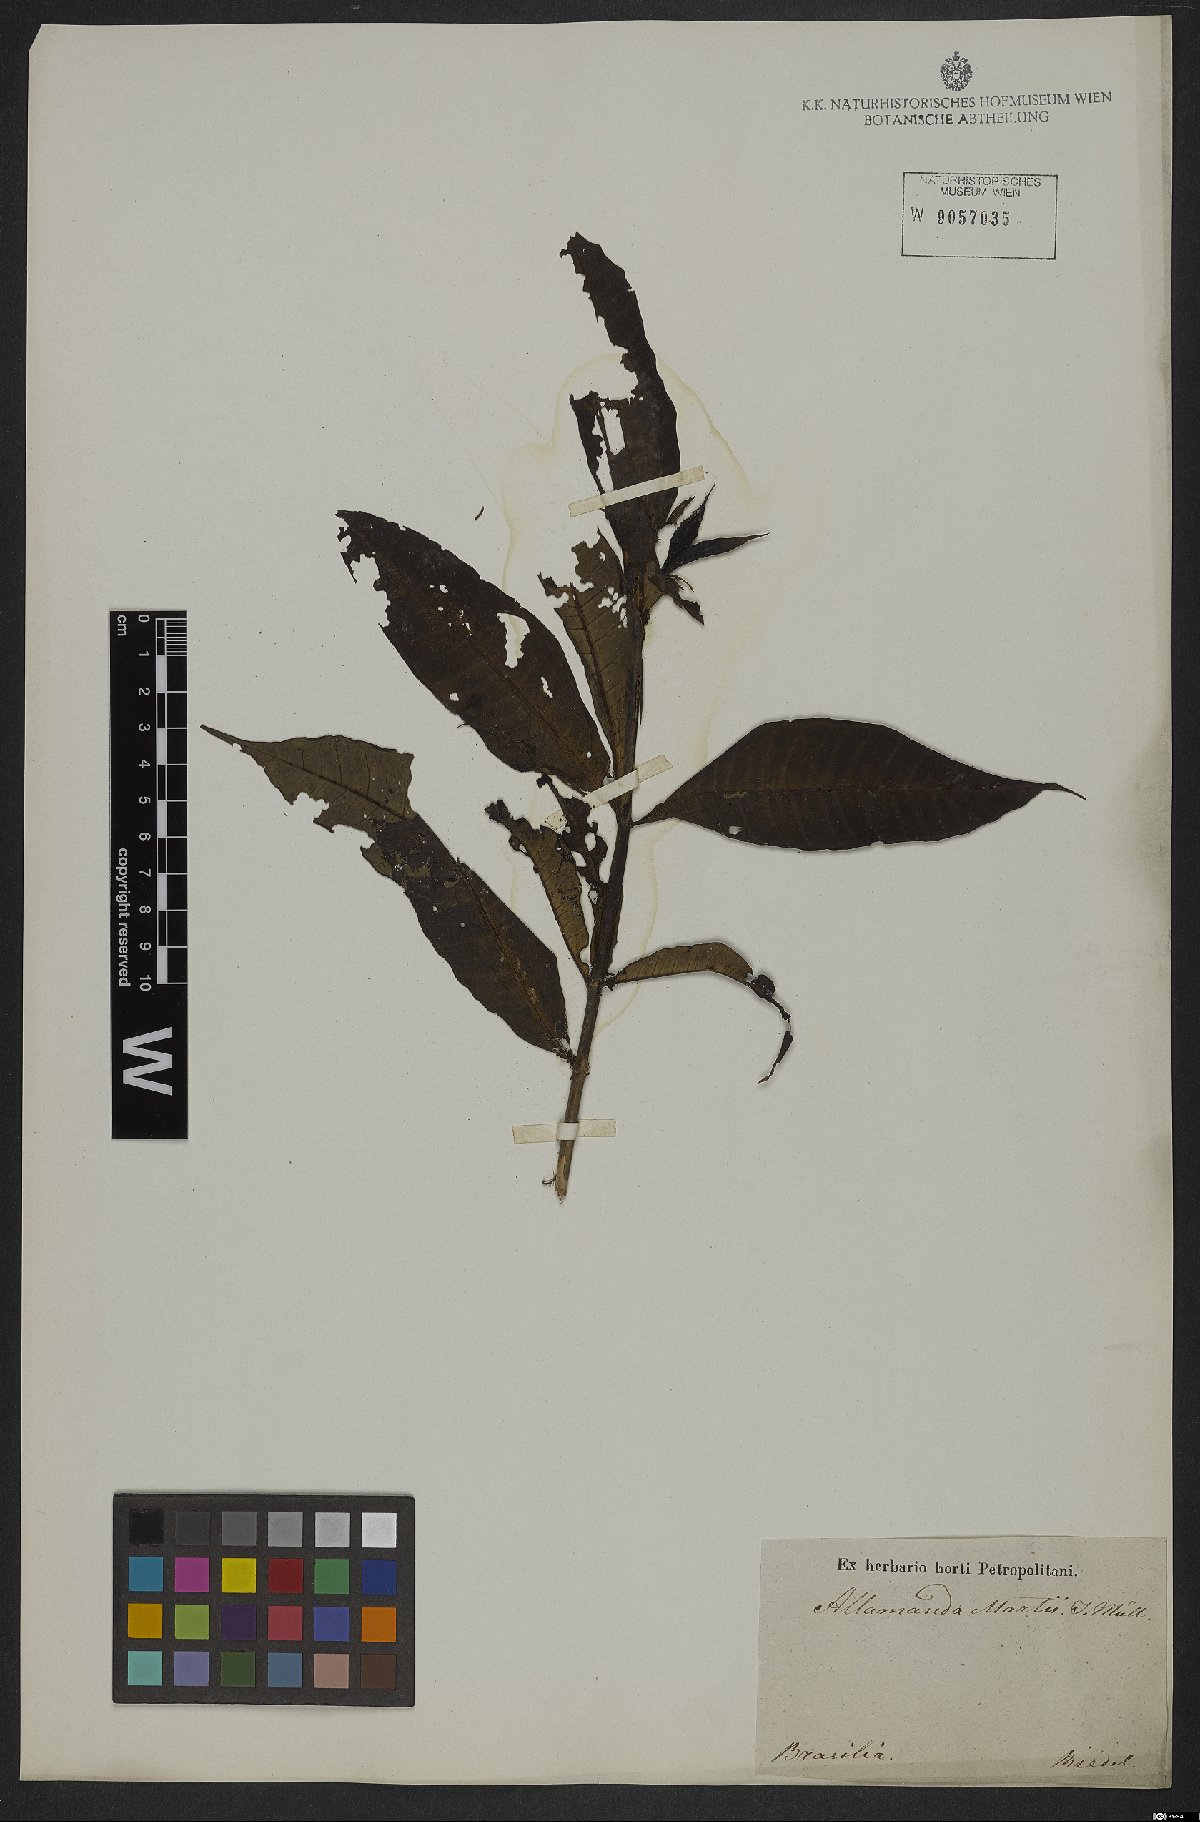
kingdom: Plantae
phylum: Tracheophyta
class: Magnoliopsida
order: Gentianales
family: Apocynaceae
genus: Allamanda
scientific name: Allamanda martii
